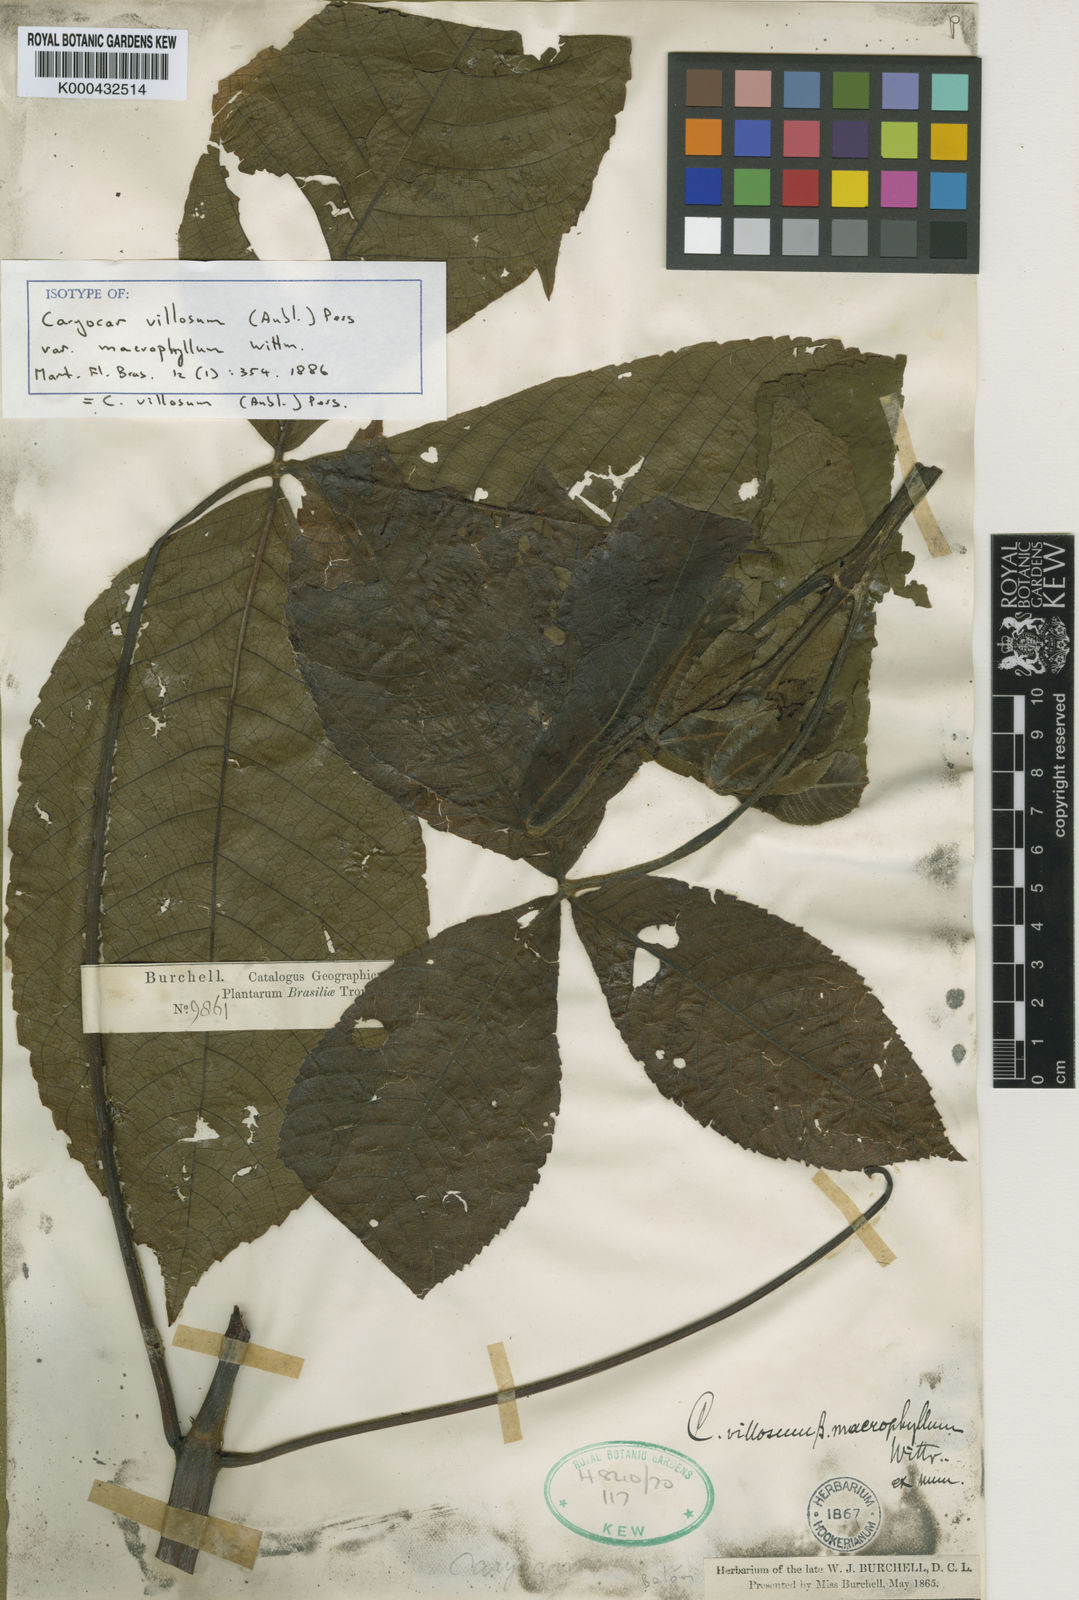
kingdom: Plantae
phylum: Tracheophyta
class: Magnoliopsida
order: Malpighiales
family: Caryocaraceae
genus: Caryocar
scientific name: Caryocar villosum
